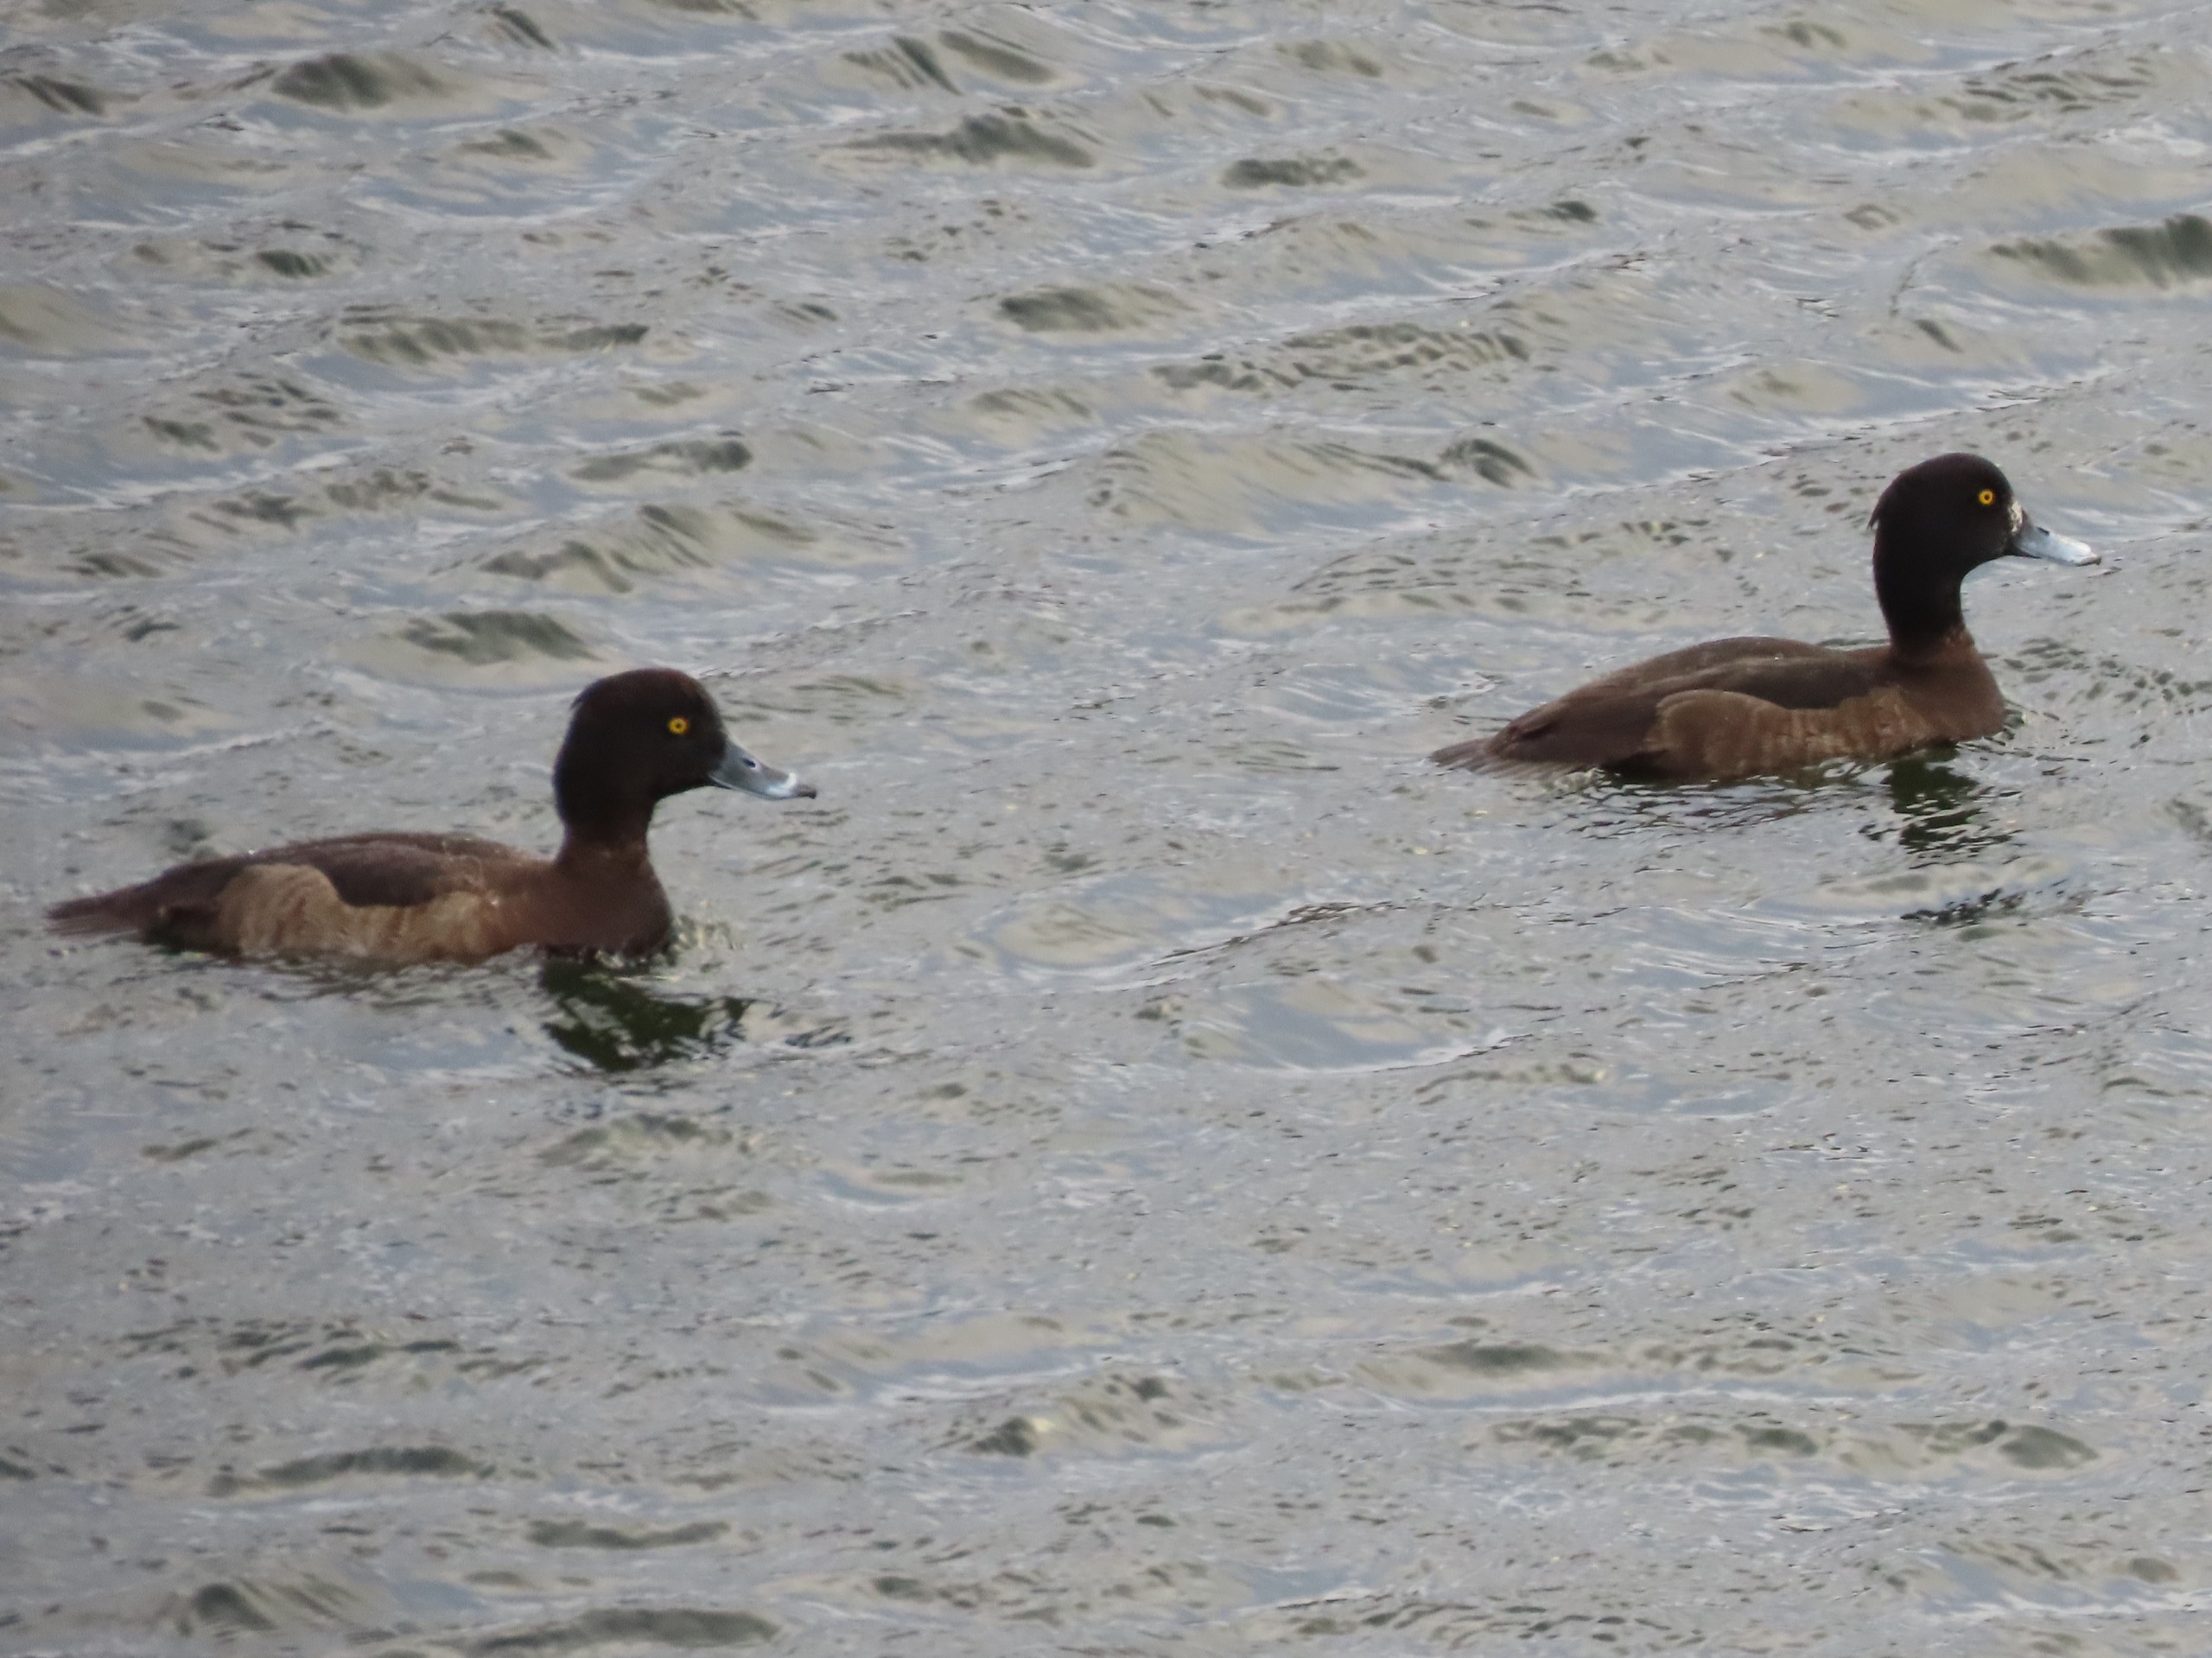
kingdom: Animalia
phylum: Chordata
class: Aves
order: Anseriformes
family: Anatidae
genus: Aythya
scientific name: Aythya fuligula
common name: Troldand
